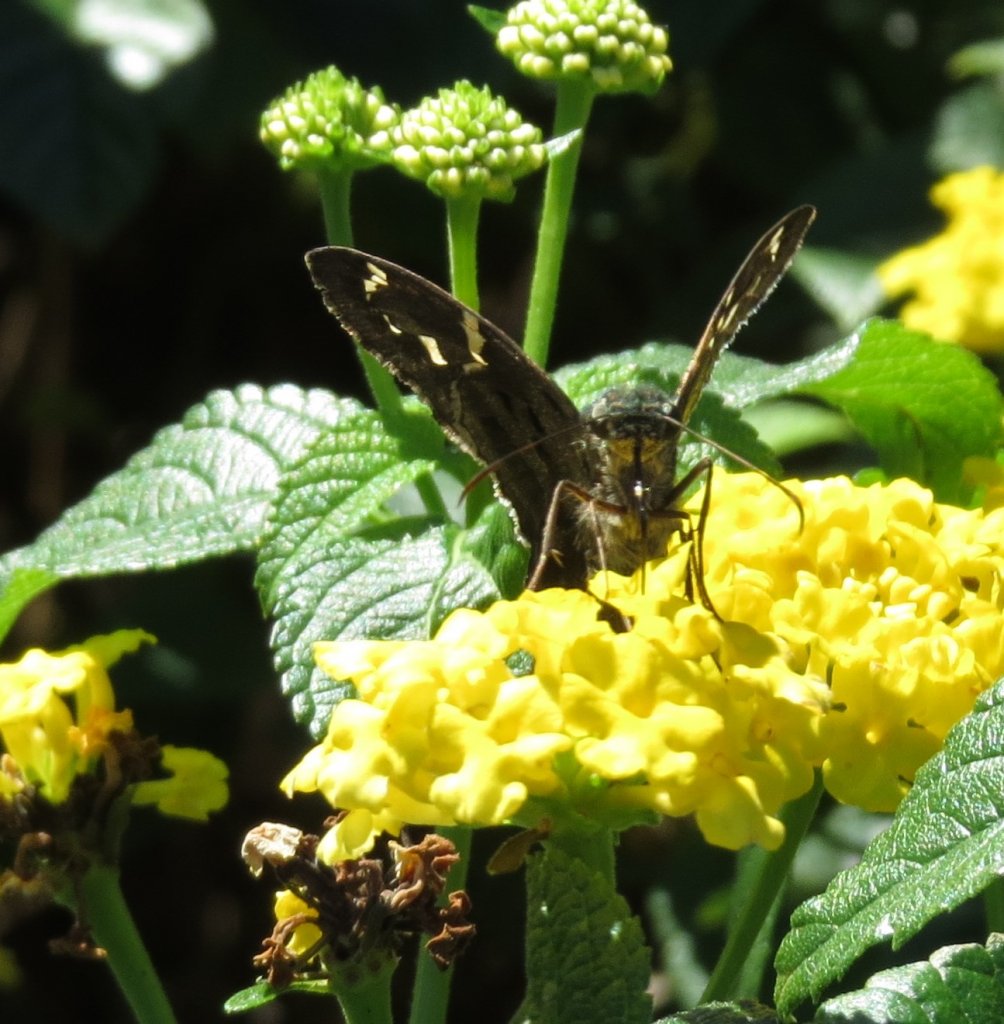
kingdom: Animalia
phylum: Arthropoda
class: Insecta
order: Lepidoptera
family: Hesperiidae
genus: Urbanus
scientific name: Urbanus proteus
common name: Long-tailed Skipper
